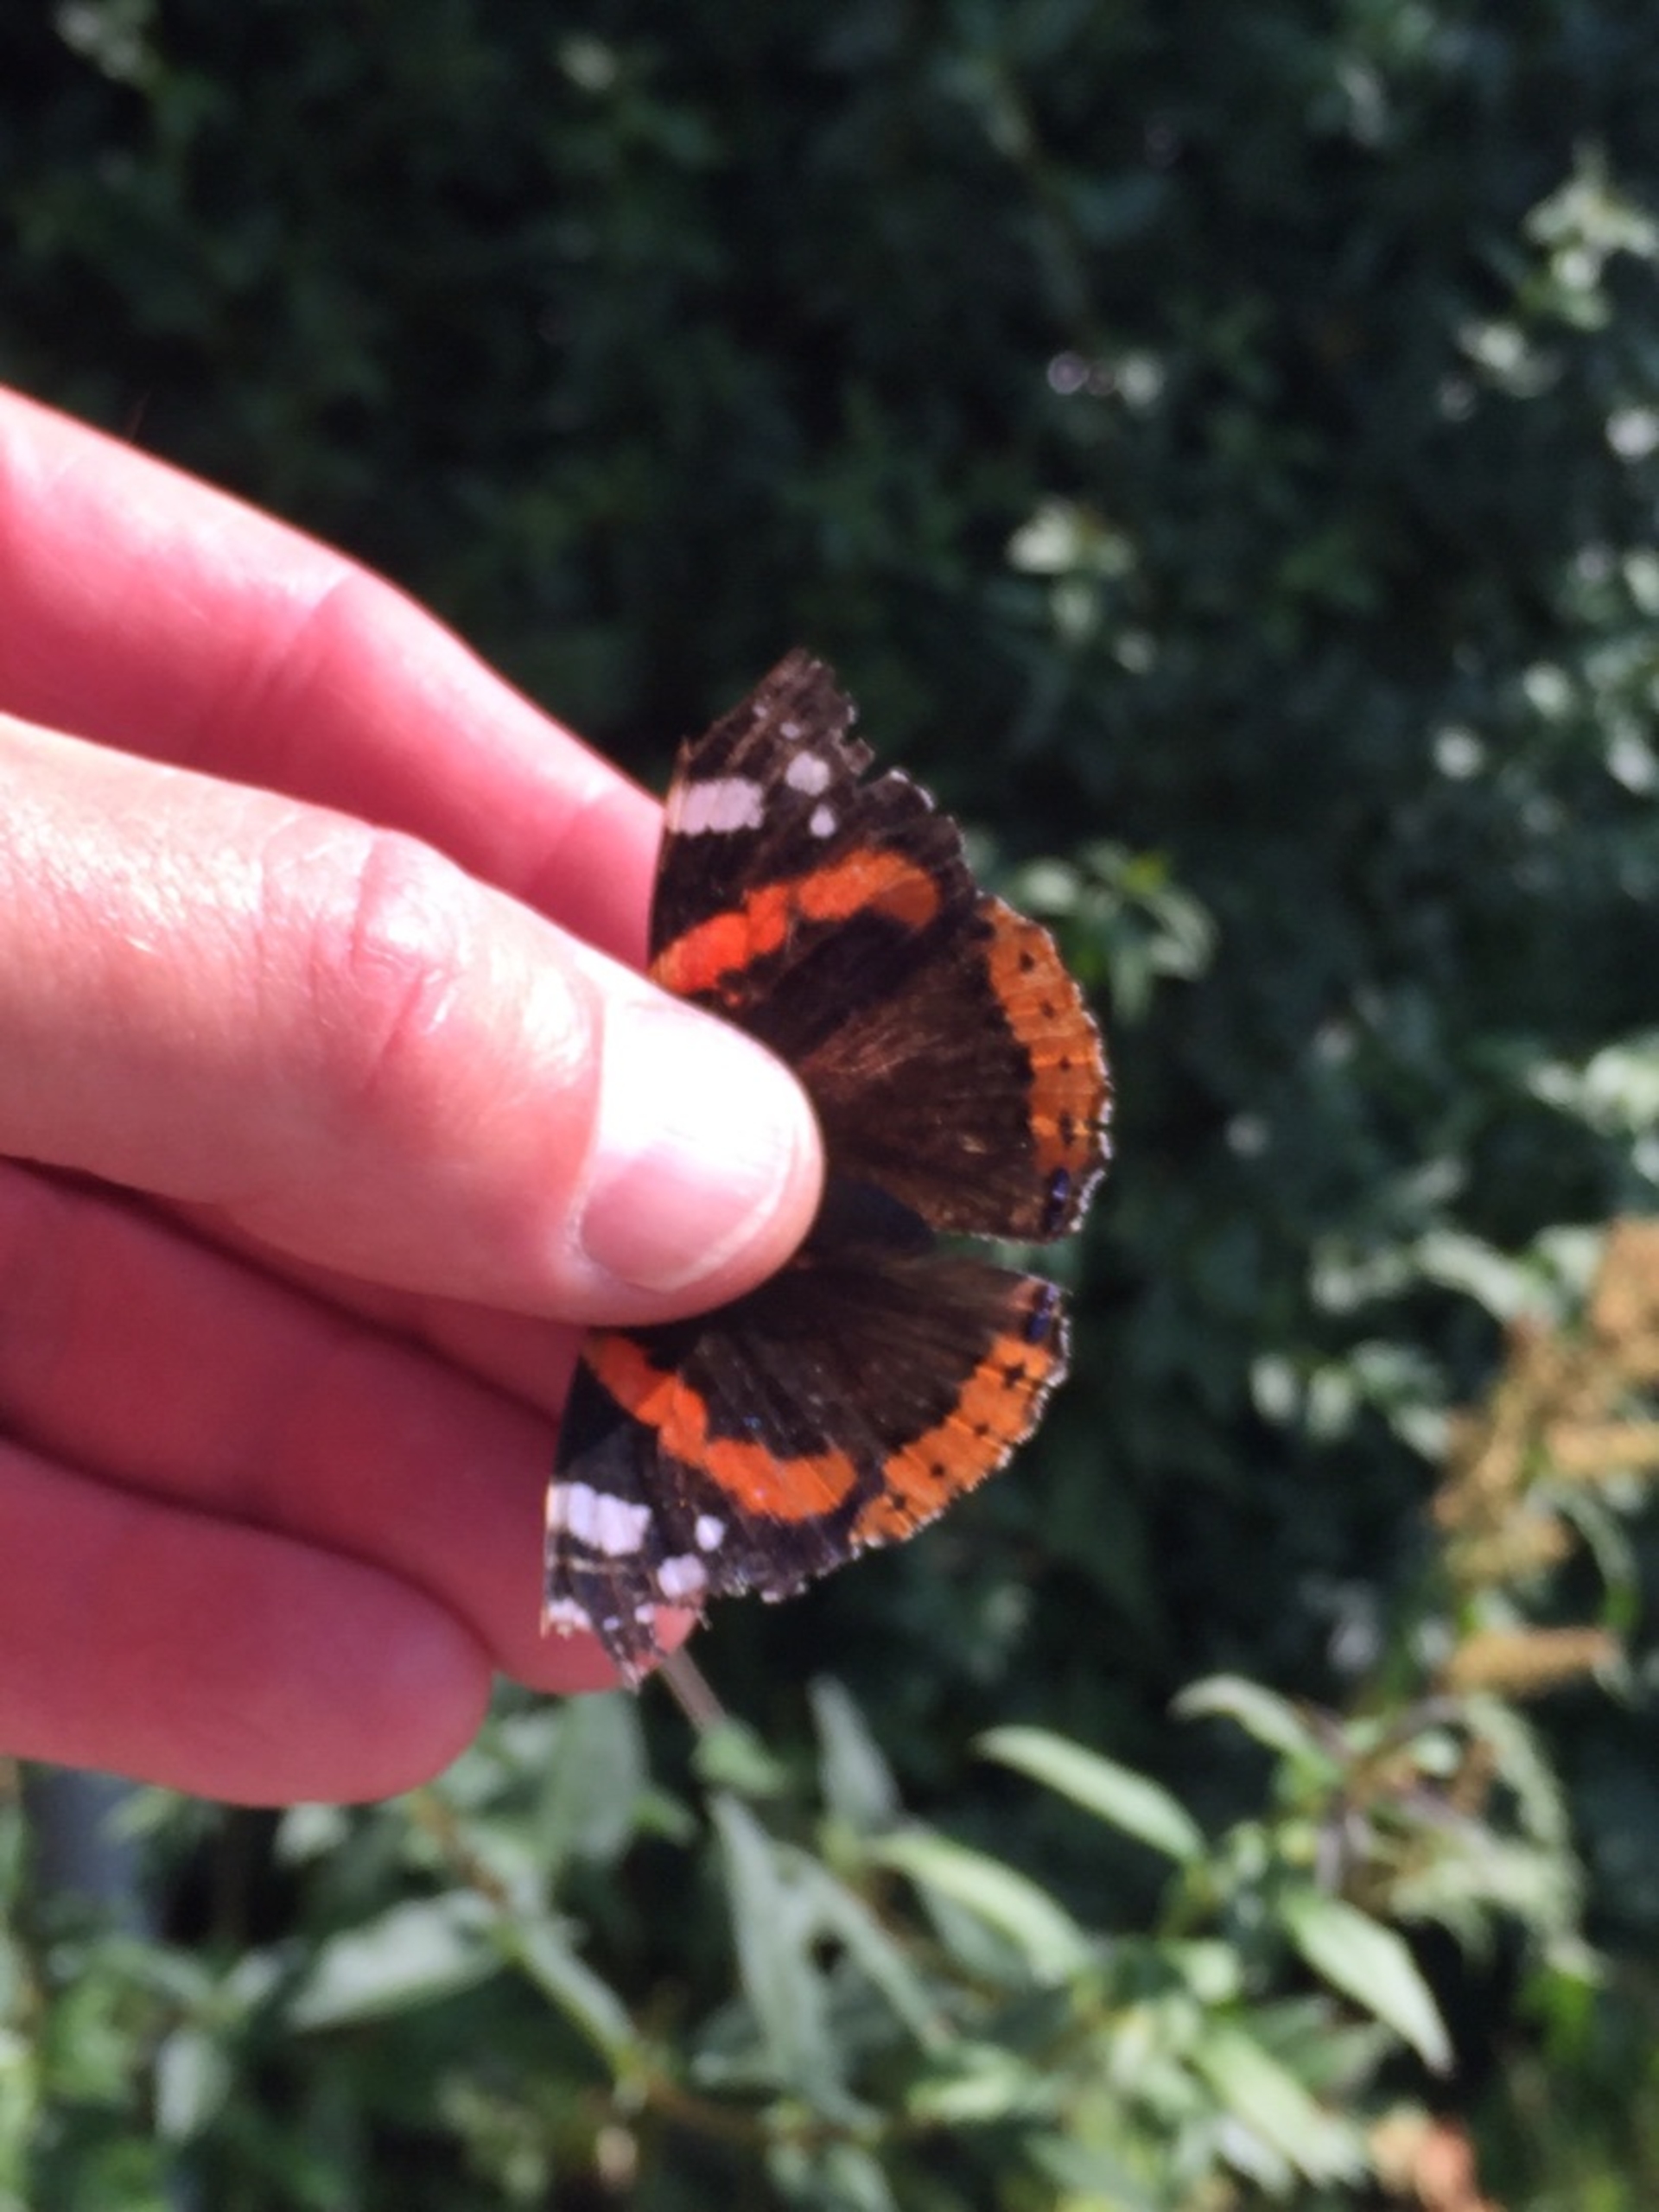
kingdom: Animalia
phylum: Arthropoda
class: Insecta
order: Lepidoptera
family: Nymphalidae
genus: Vanessa
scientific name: Vanessa atalanta
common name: Admiral
